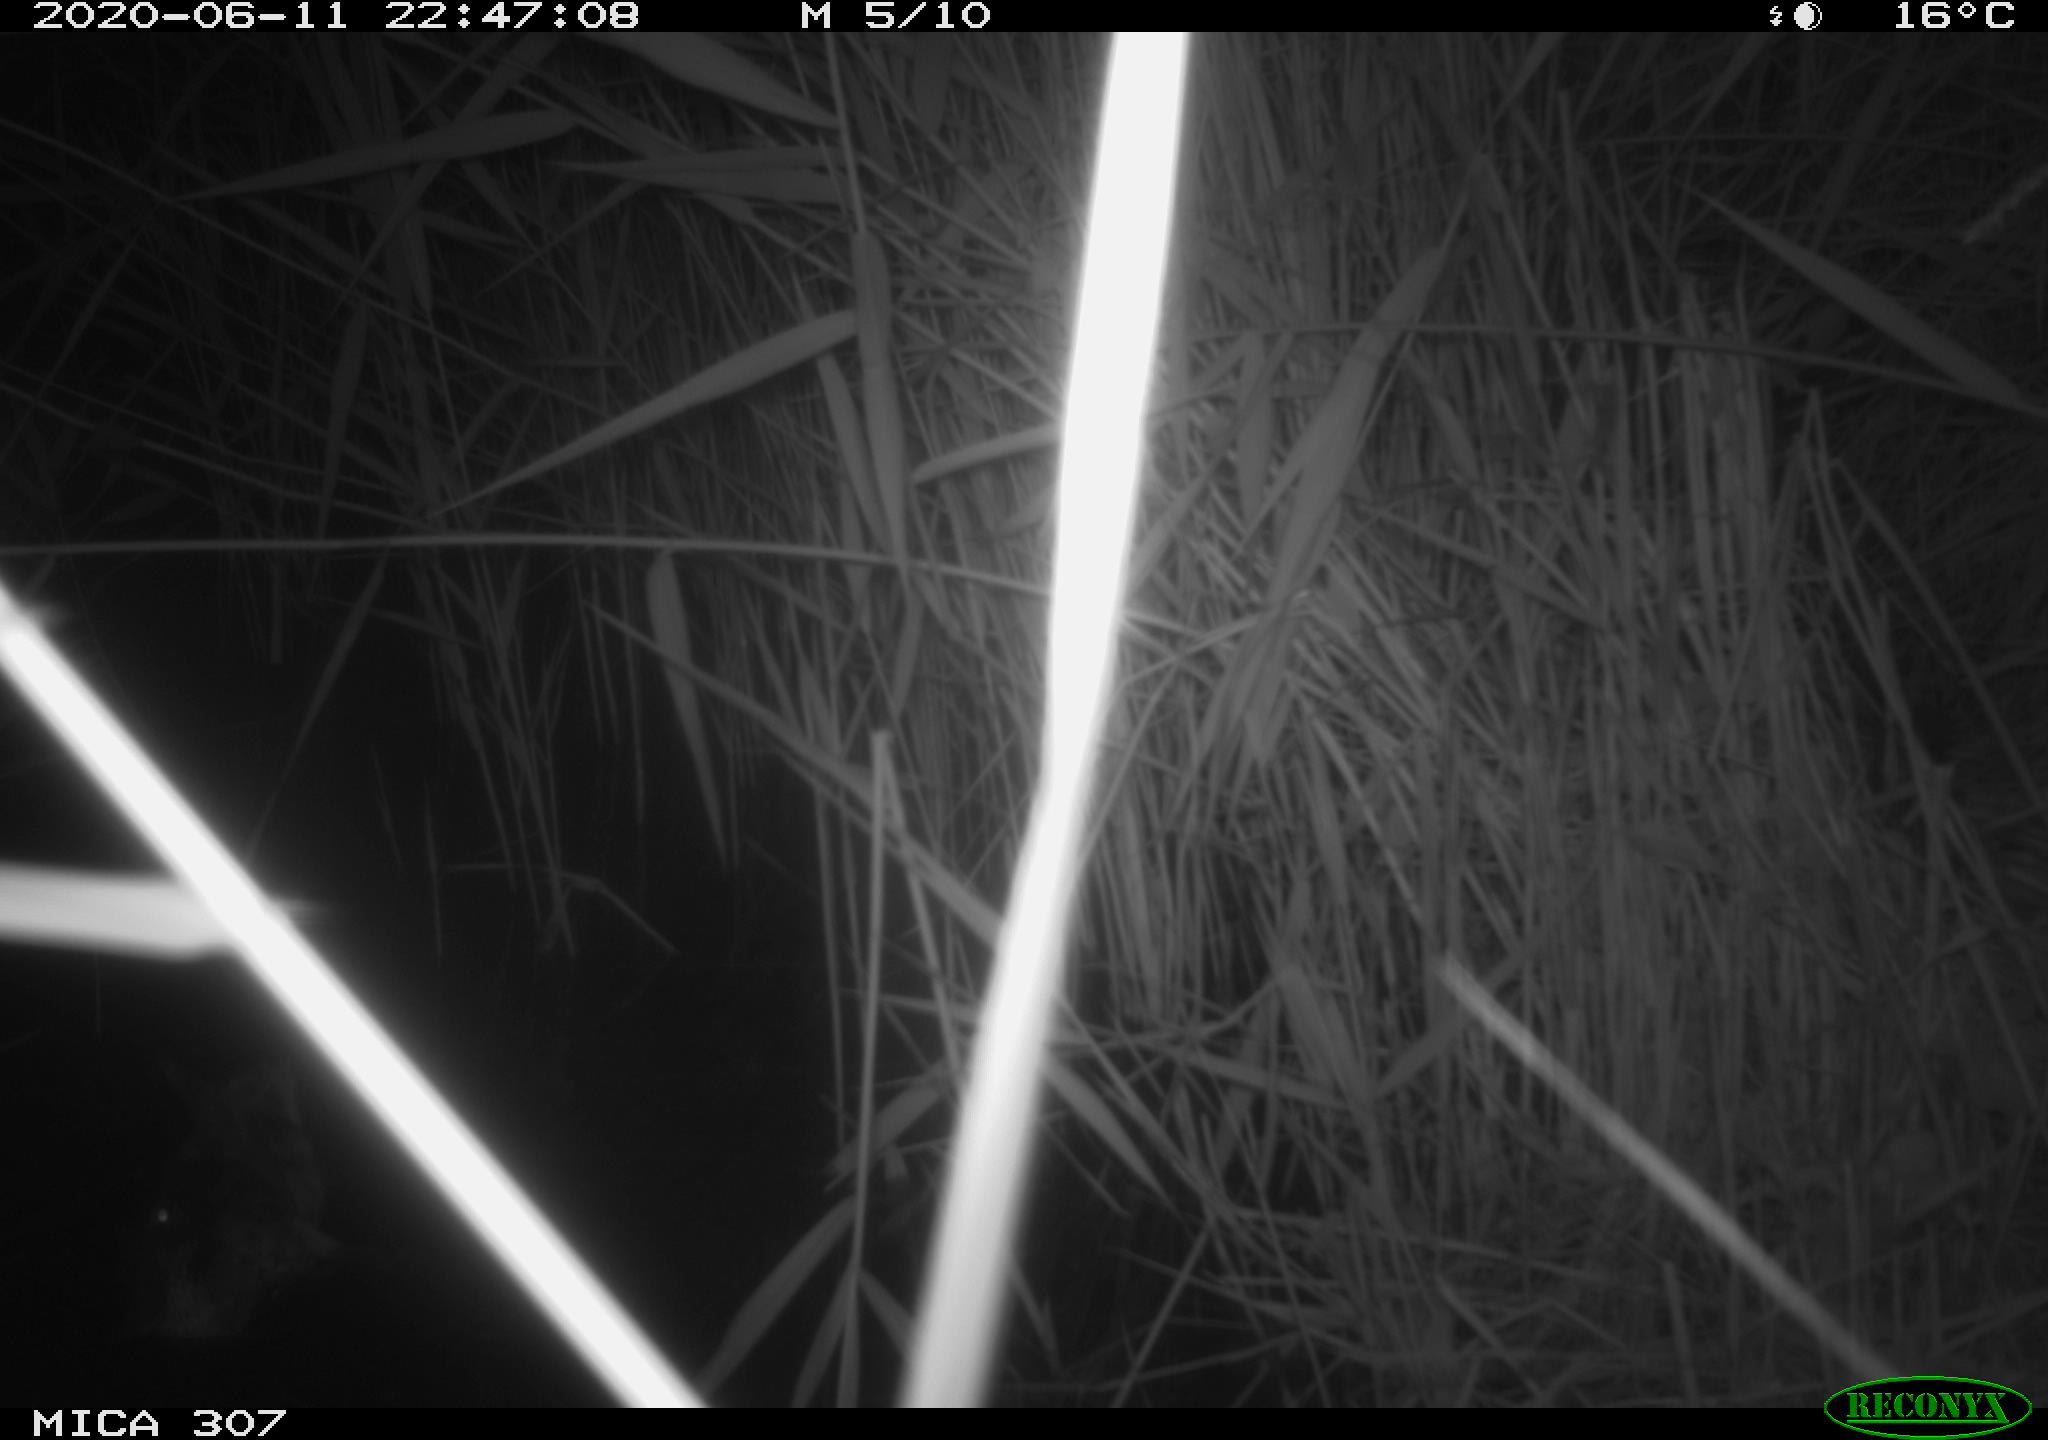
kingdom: Animalia
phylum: Chordata
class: Aves
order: Anseriformes
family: Anatidae
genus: Anas
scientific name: Anas platyrhynchos
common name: Mallard
